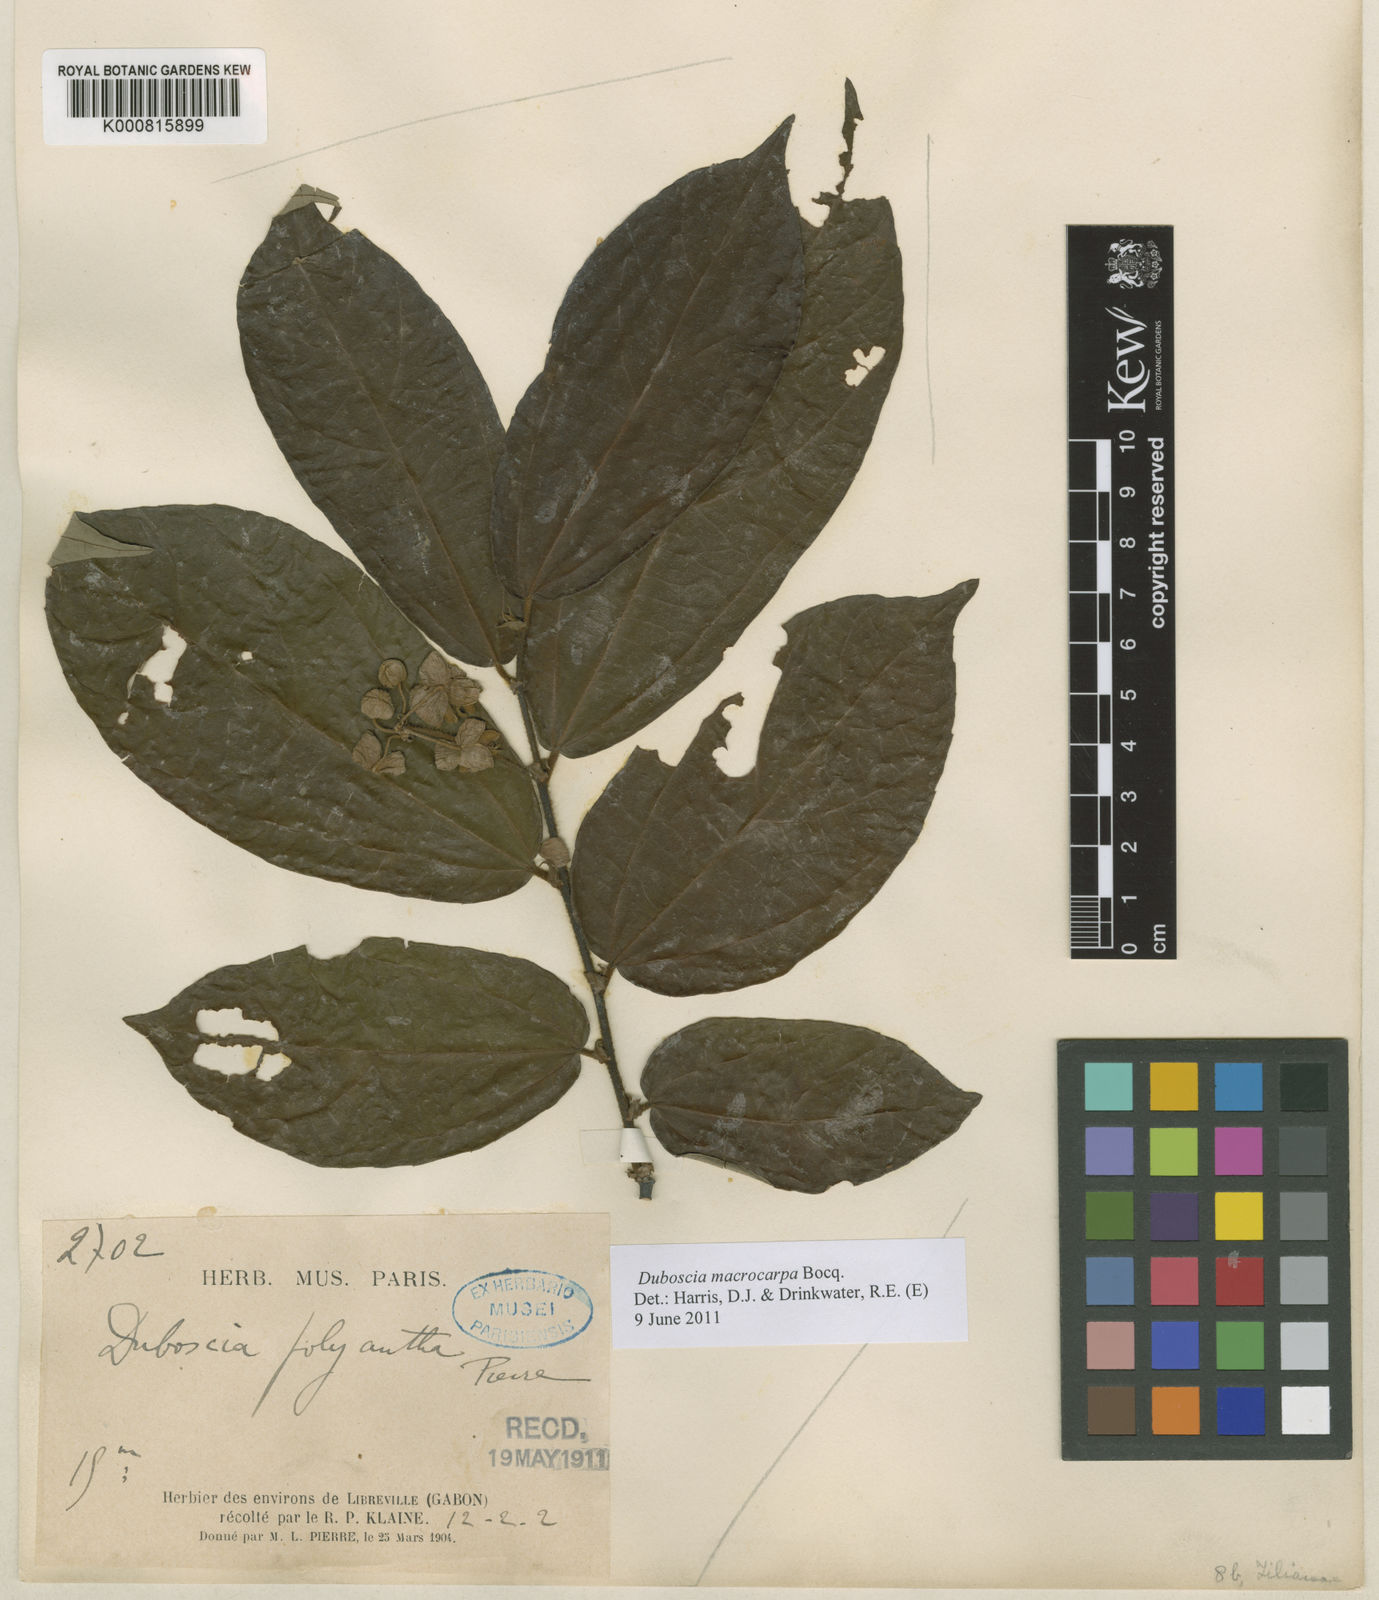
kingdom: Plantae
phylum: Tracheophyta
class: Magnoliopsida
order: Malvales
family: Malvaceae
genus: Duboscia
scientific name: Duboscia macrocarpa
